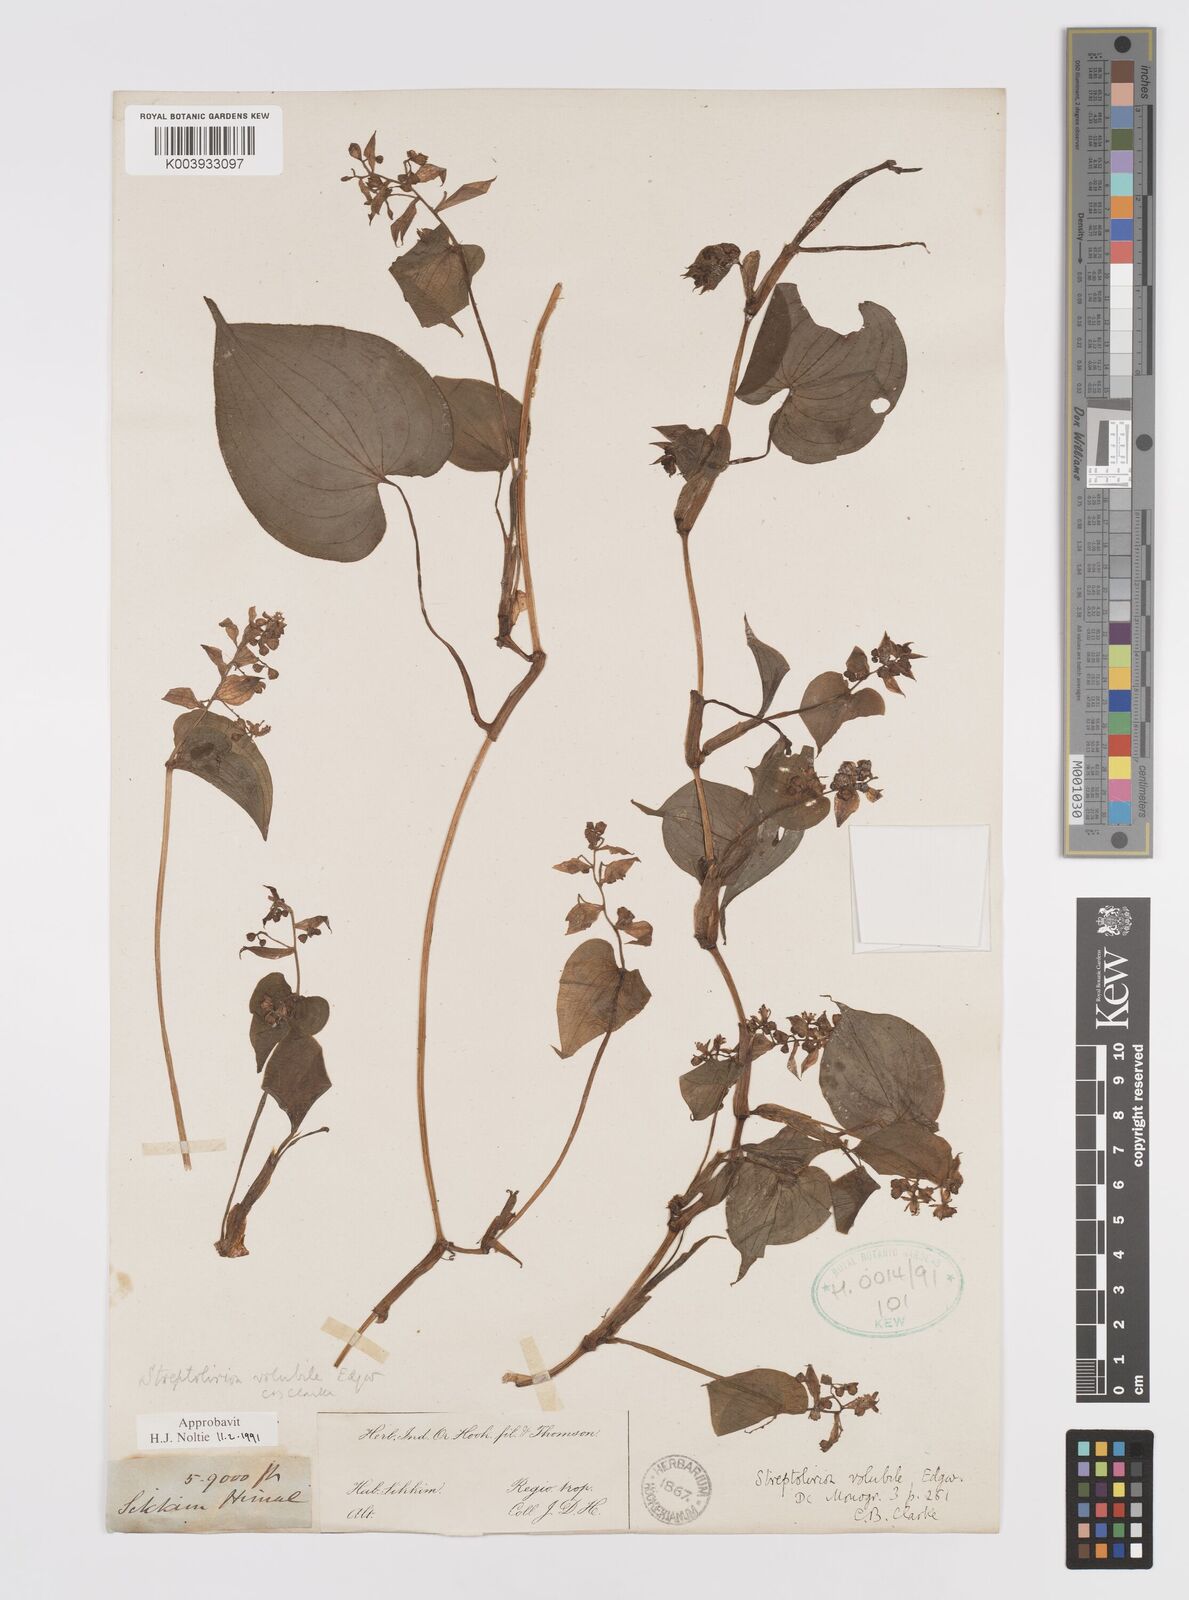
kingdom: Plantae
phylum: Tracheophyta
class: Liliopsida
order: Commelinales
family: Commelinaceae
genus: Streptolirion
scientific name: Streptolirion volubile
